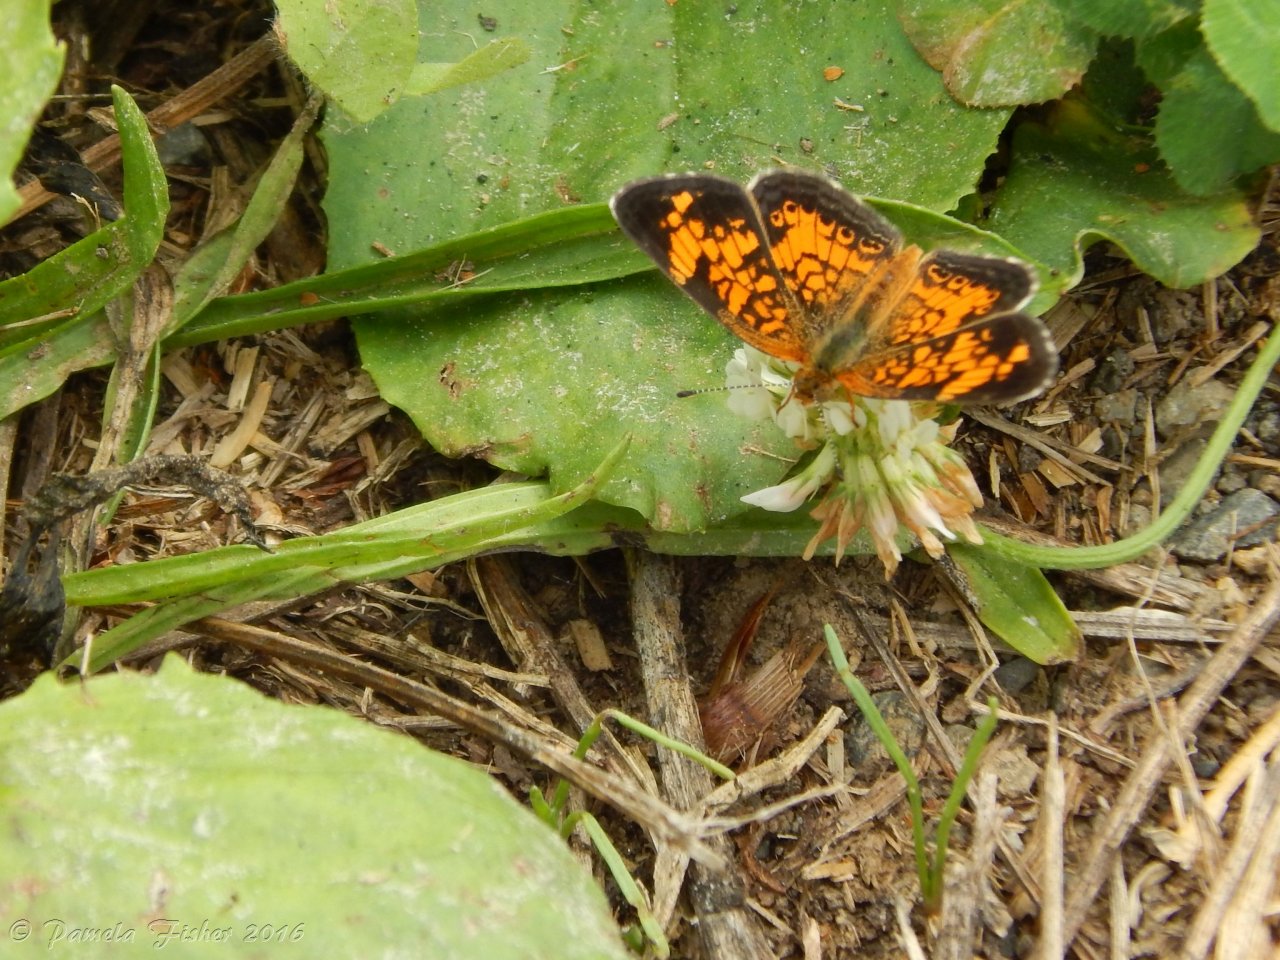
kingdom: Animalia
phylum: Arthropoda
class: Insecta
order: Lepidoptera
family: Nymphalidae
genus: Phyciodes
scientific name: Phyciodes tharos
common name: Pearl Crescent
